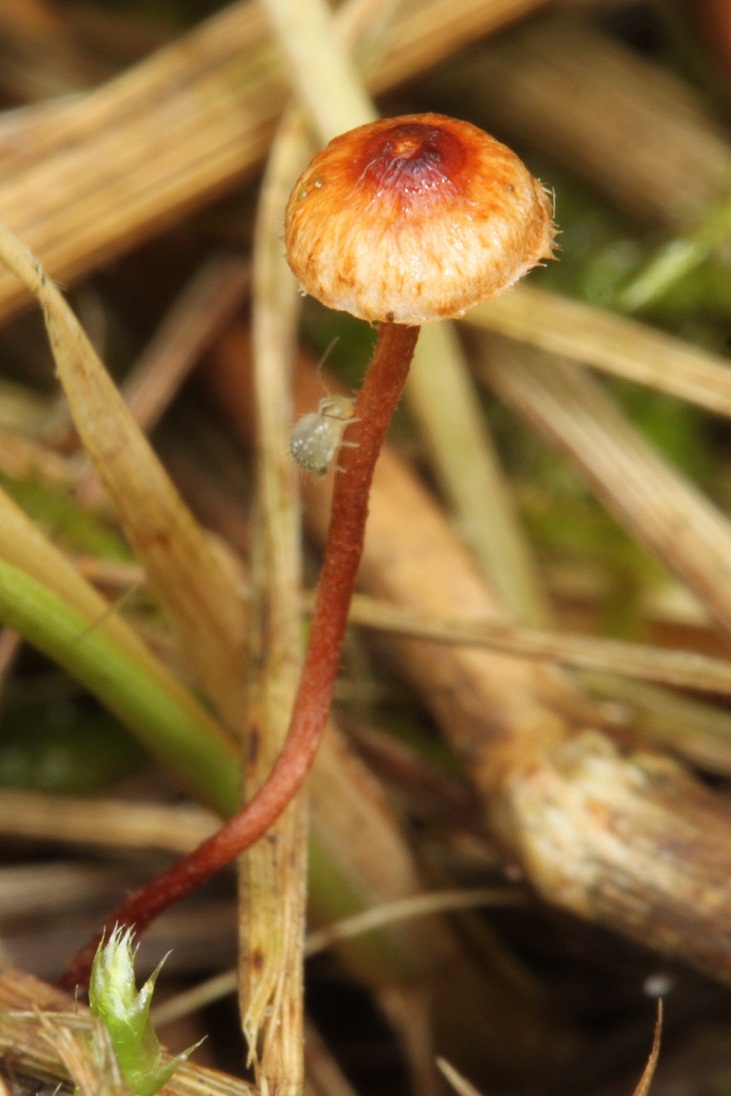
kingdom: Fungi
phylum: Basidiomycota
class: Agaricomycetes
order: Agaricales
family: Marasmiaceae
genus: Crinipellis
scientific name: Crinipellis scabella
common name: børstefod
